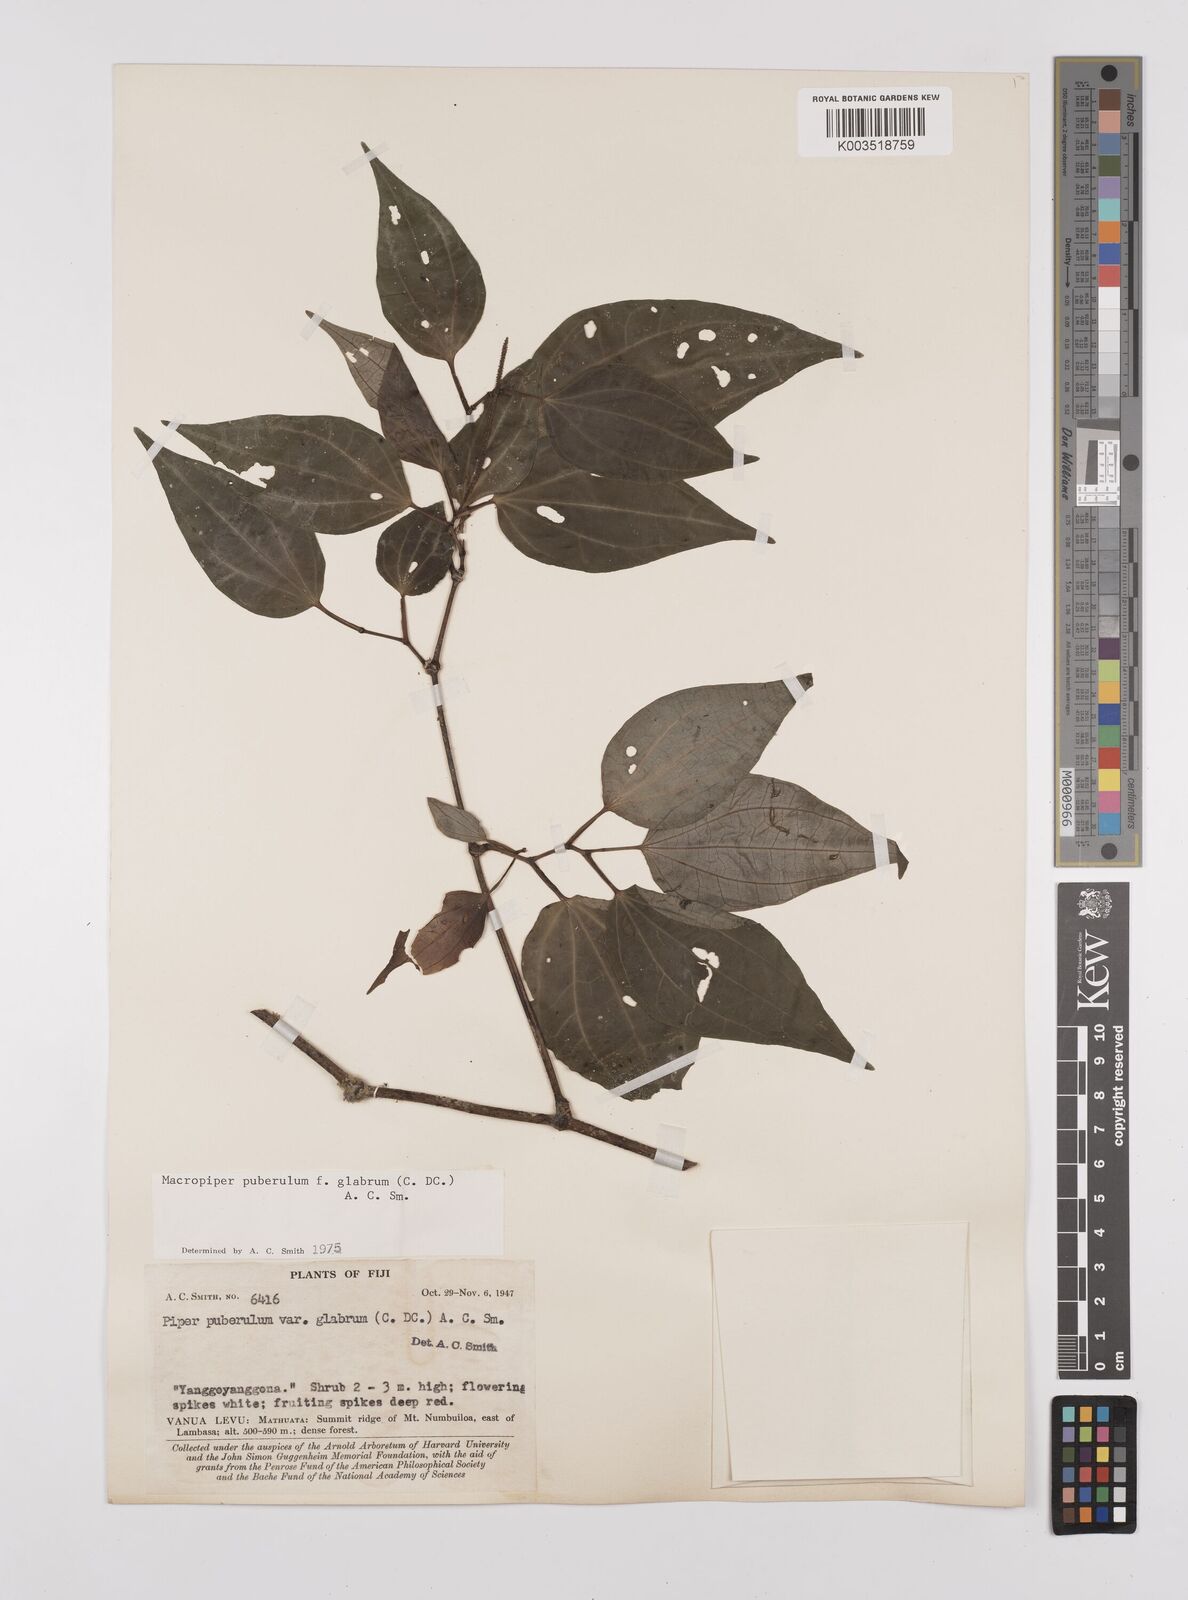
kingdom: Plantae
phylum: Tracheophyta
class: Magnoliopsida
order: Piperales
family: Piperaceae
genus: Macropiper
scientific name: Macropiper puberulum
